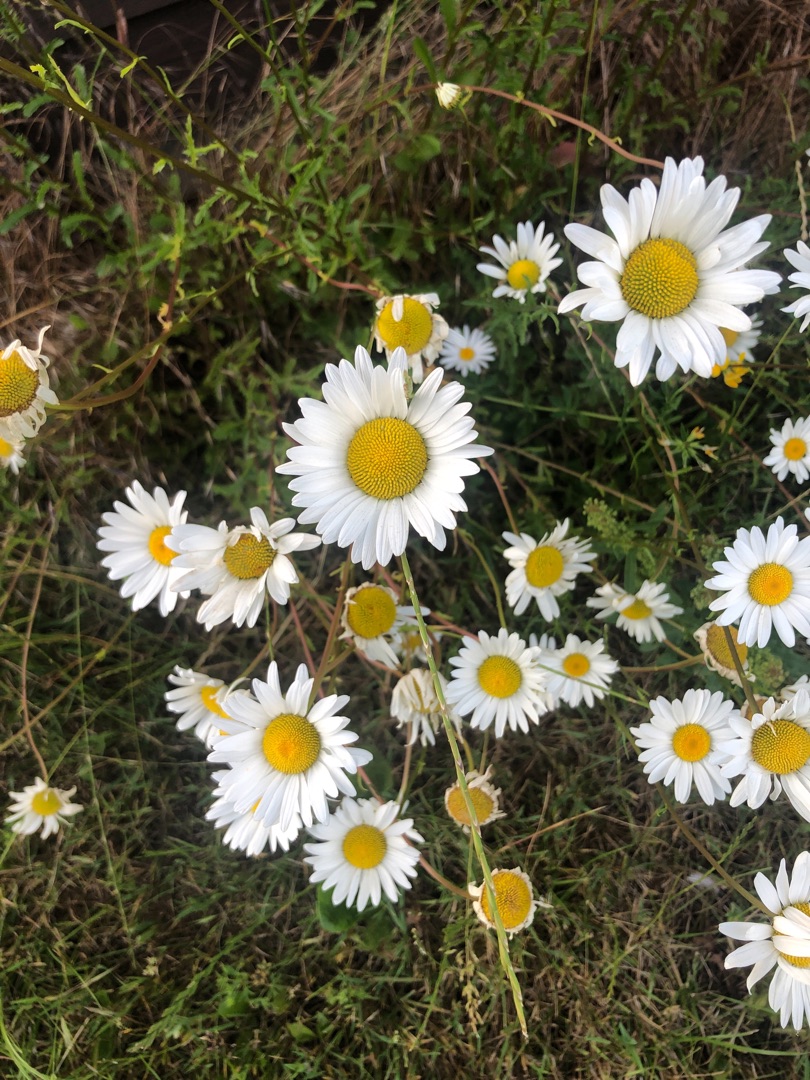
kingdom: Plantae
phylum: Tracheophyta
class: Magnoliopsida
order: Asterales
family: Asteraceae
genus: Leucanthemum
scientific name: Leucanthemum vulgare
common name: Hvid okseøje
